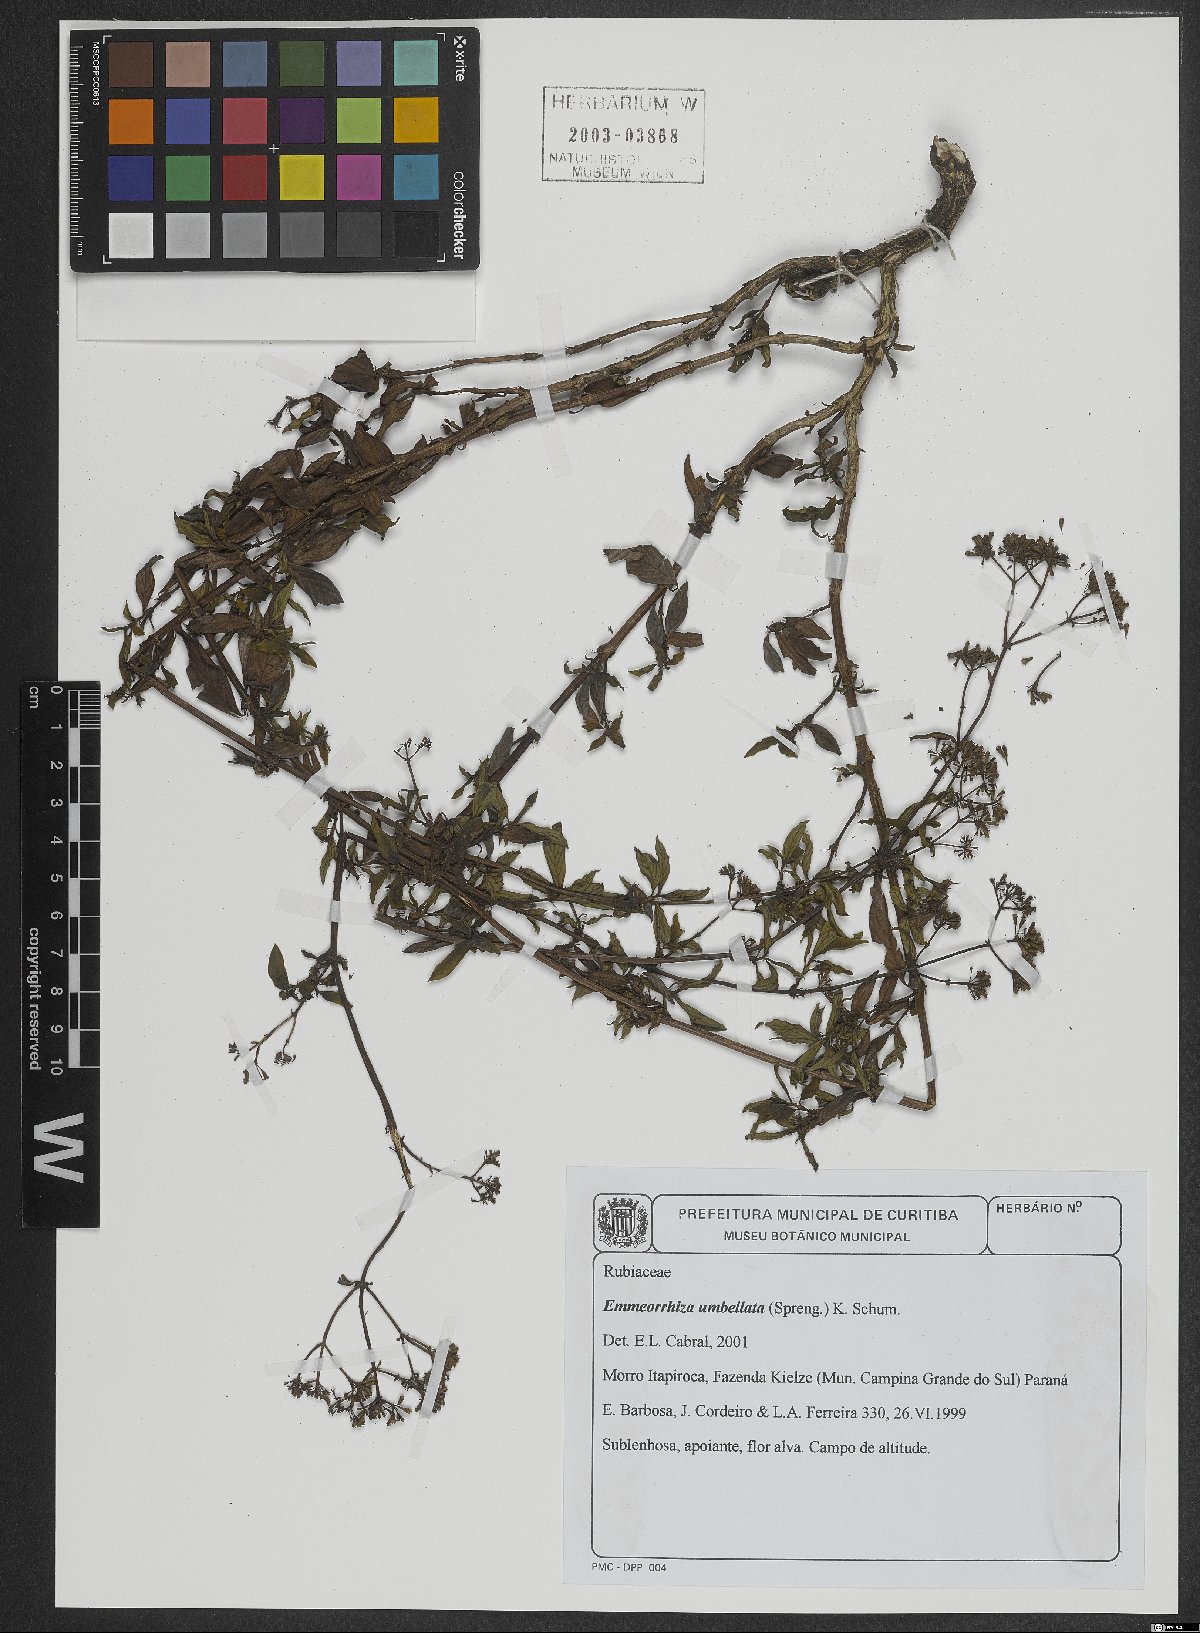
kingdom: Plantae
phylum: Tracheophyta
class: Magnoliopsida
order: Gentianales
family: Rubiaceae
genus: Emmeorhiza
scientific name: Emmeorhiza umbellata
